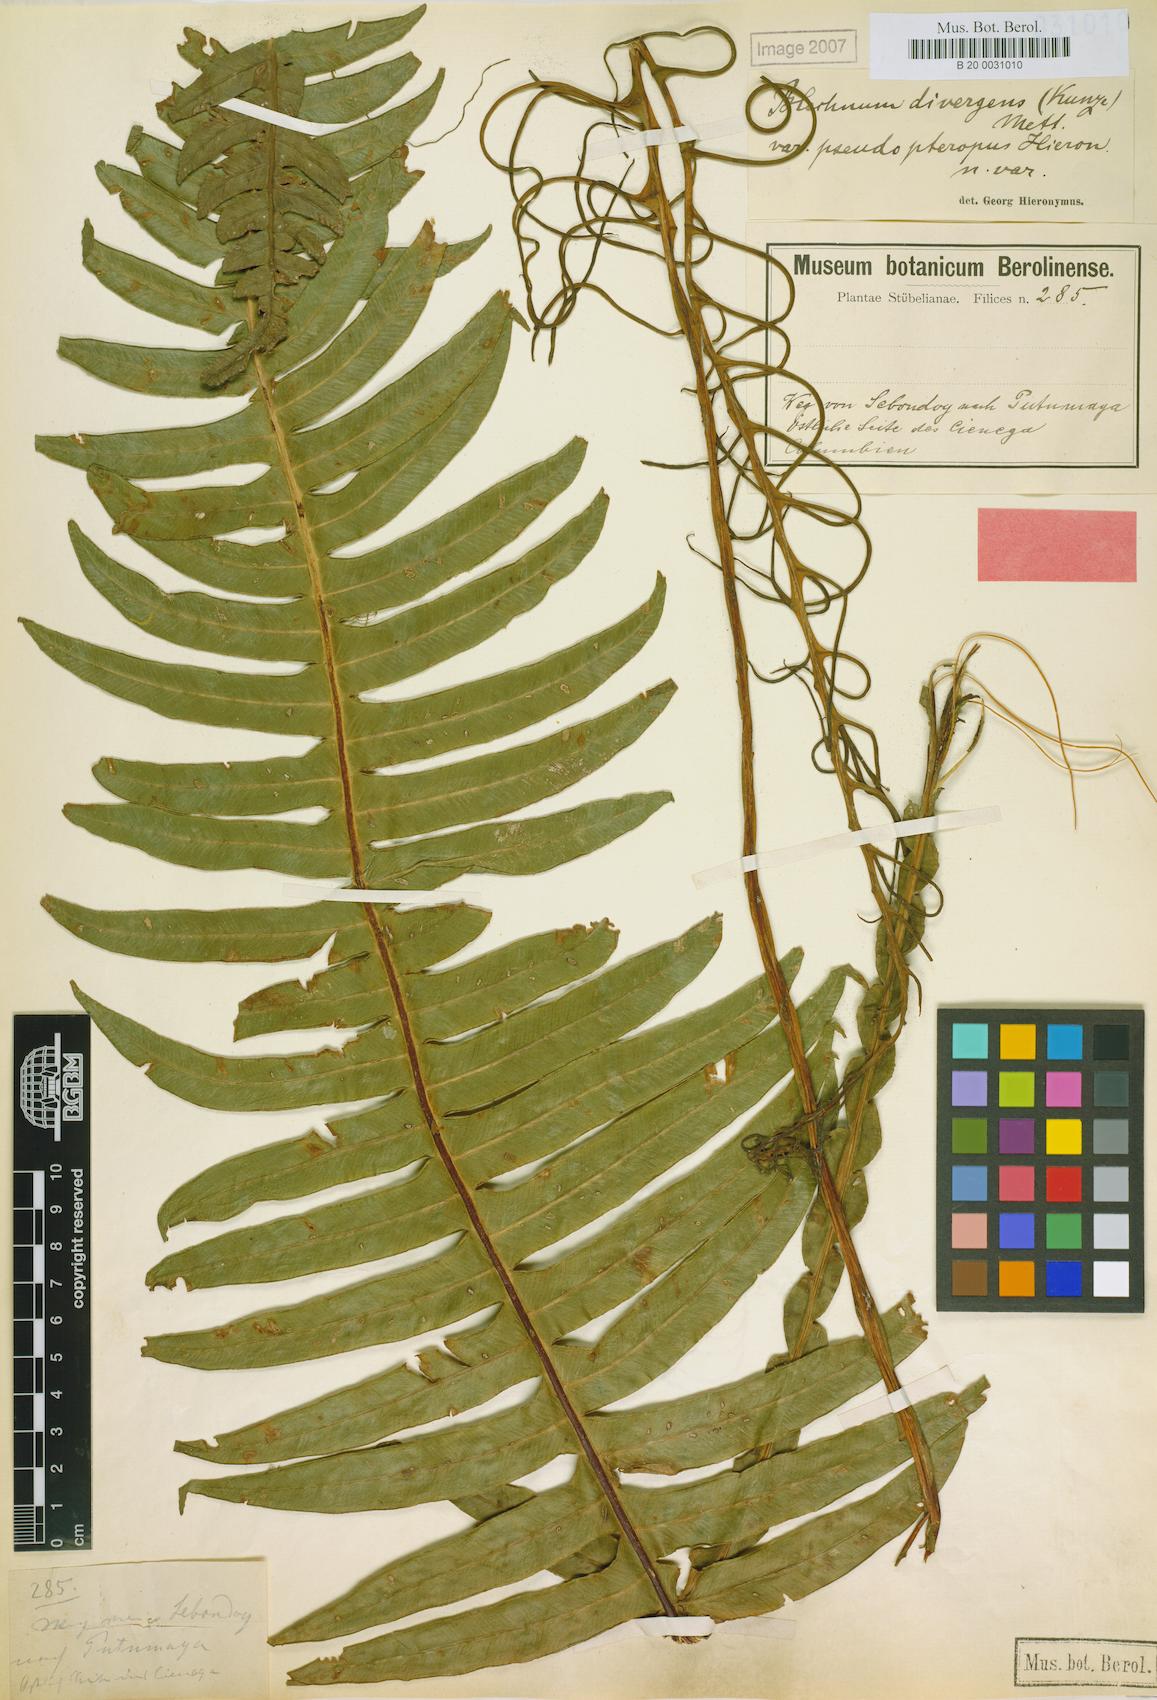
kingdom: Plantae
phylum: Tracheophyta
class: Polypodiopsida
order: Polypodiales
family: Blechnaceae
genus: Austroblechnum
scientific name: Austroblechnum divergens
